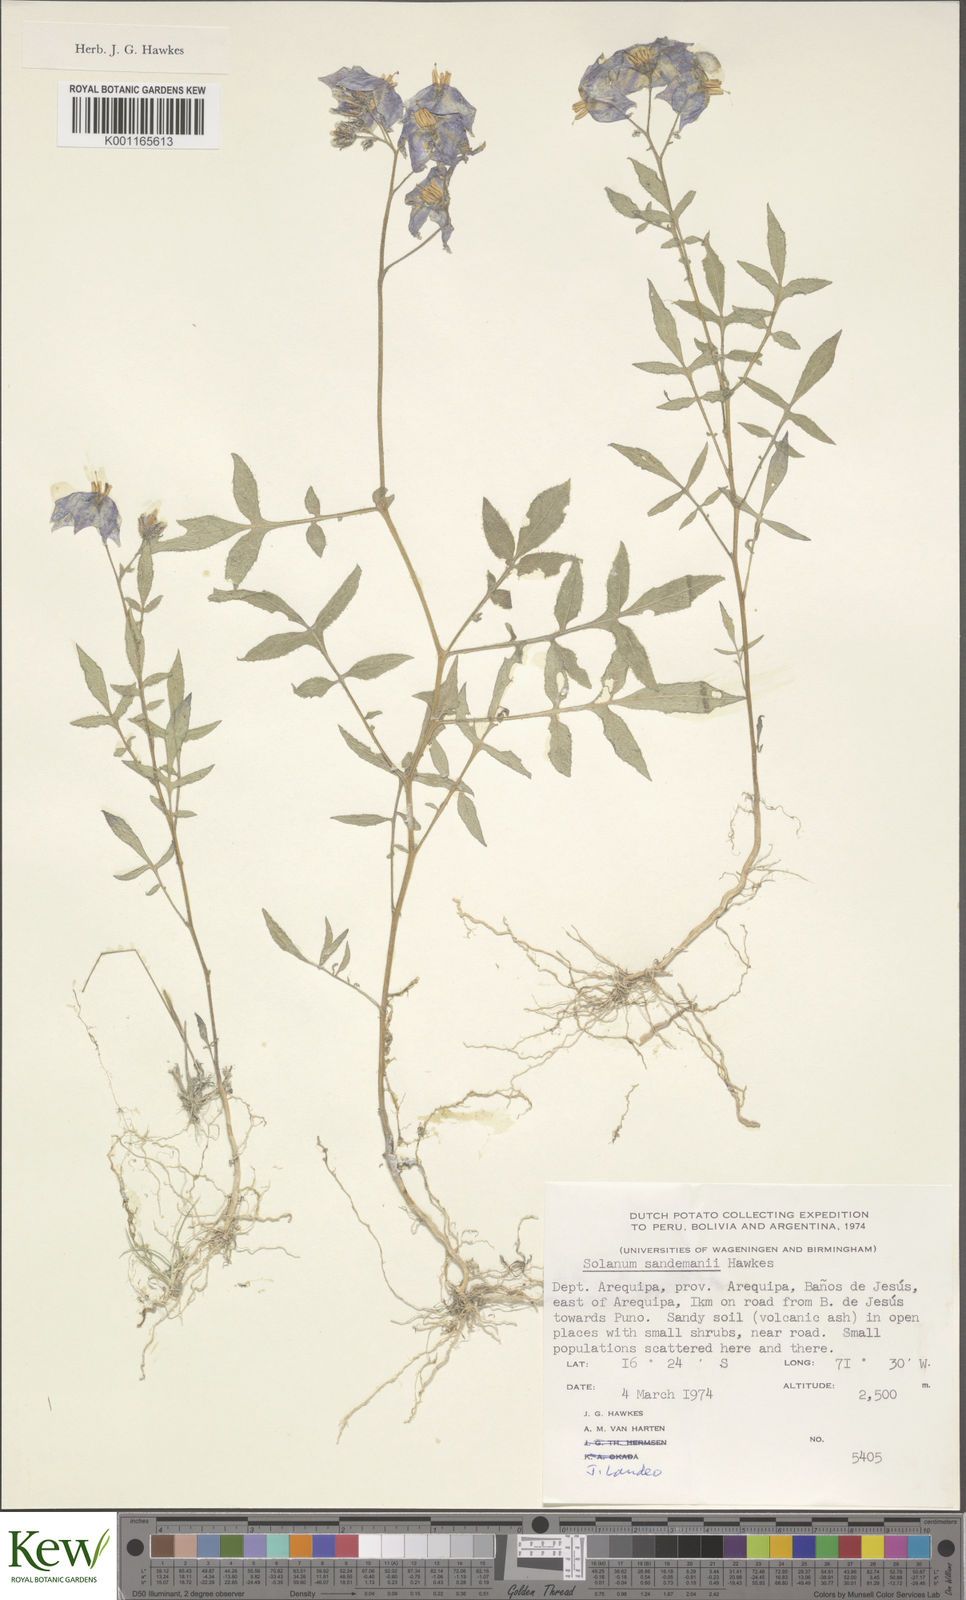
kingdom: Plantae
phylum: Tracheophyta
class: Magnoliopsida
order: Solanales
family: Solanaceae
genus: Solanum
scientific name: Solanum medians
